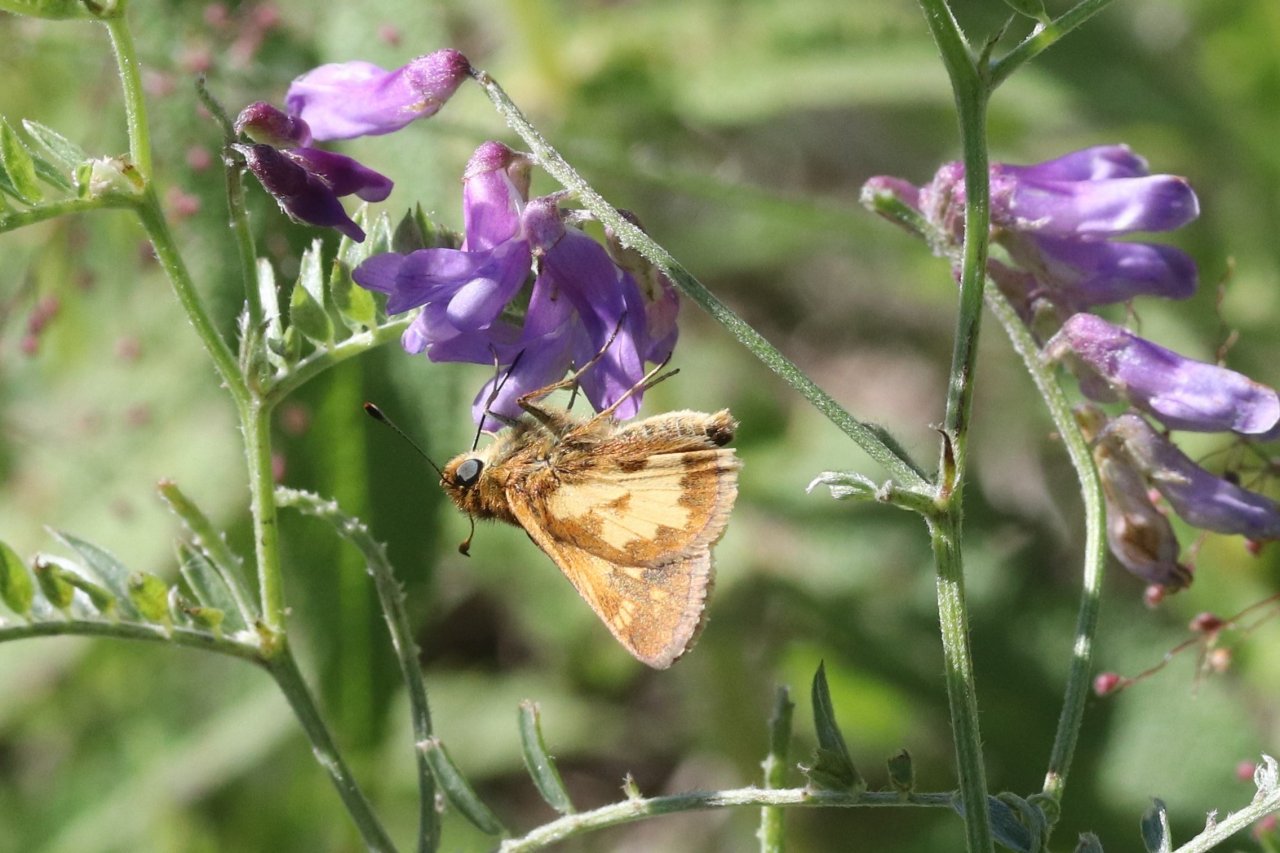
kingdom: Animalia
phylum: Arthropoda
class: Insecta
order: Lepidoptera
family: Hesperiidae
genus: Polites
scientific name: Polites coras
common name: Peck's Skipper
